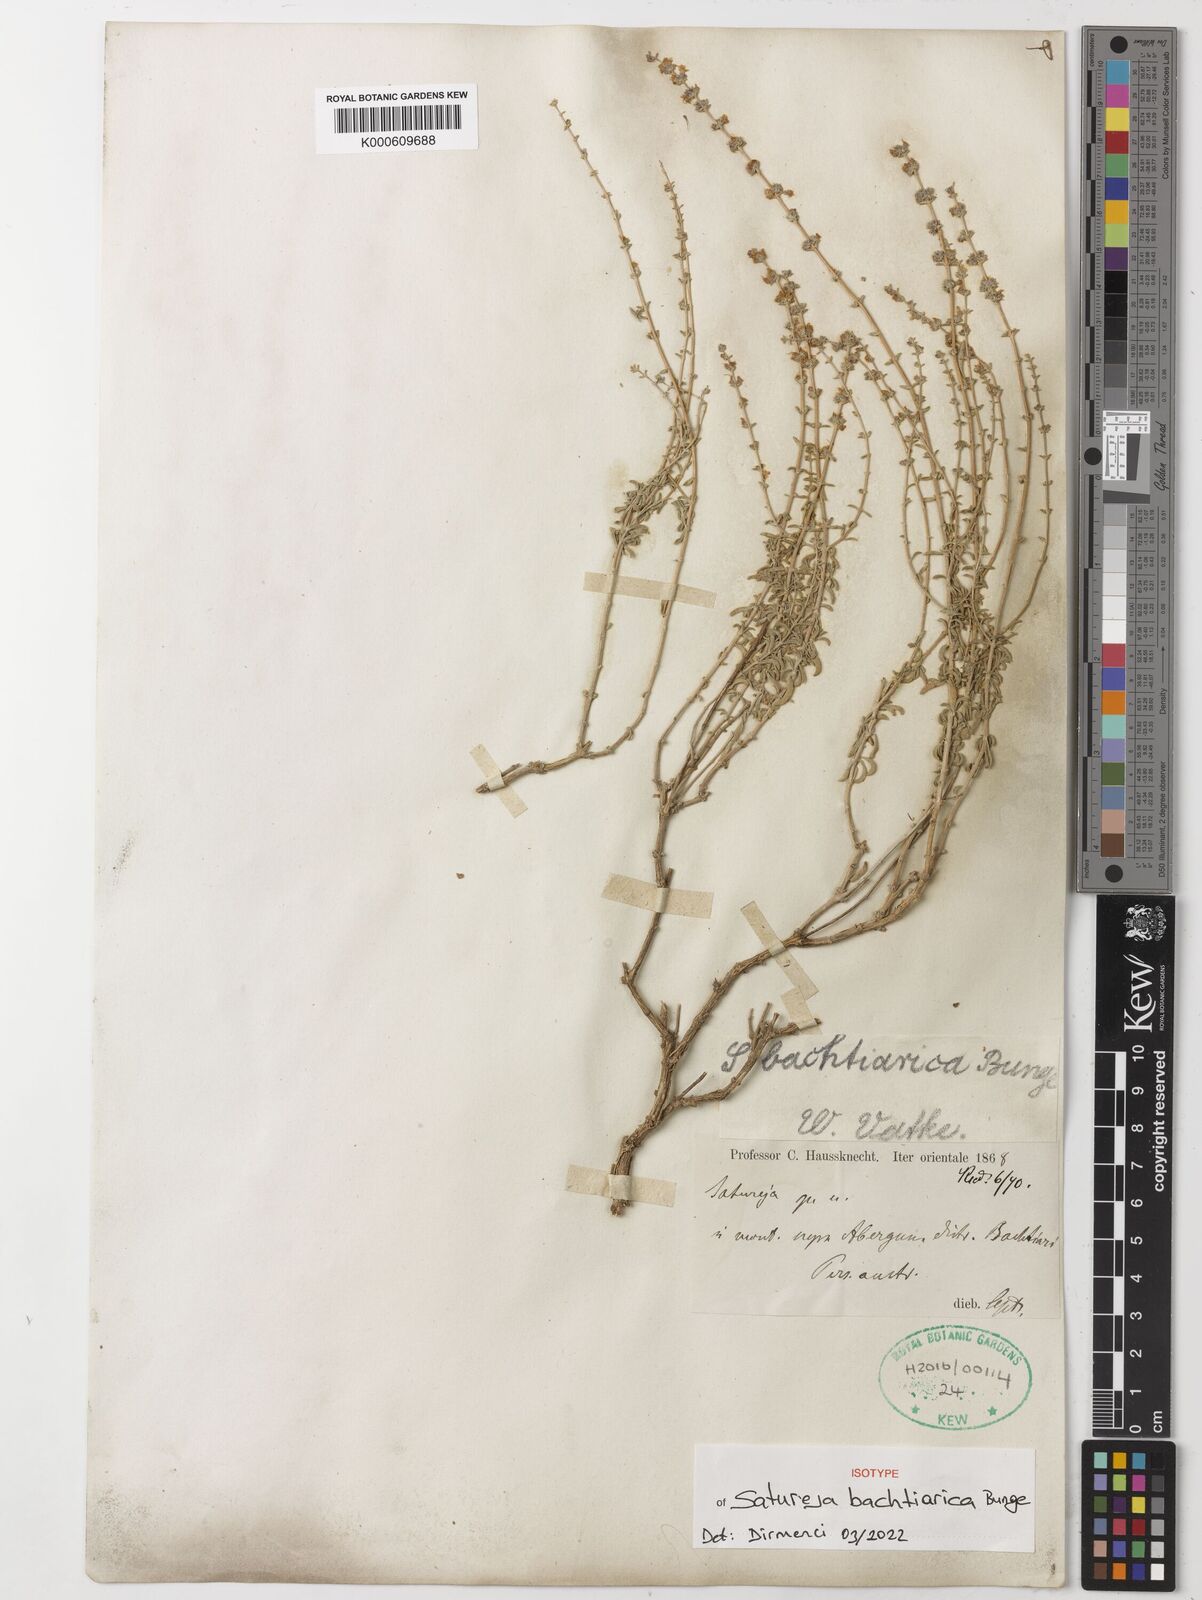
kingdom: Plantae
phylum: Tracheophyta
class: Magnoliopsida
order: Lamiales
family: Lamiaceae
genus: Satureja
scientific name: Satureja bachtiarica
